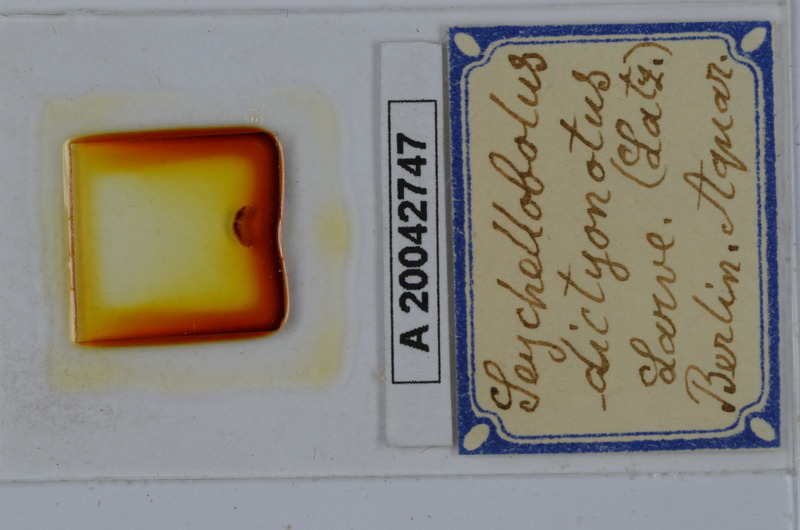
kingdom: Animalia
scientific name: Animalia
